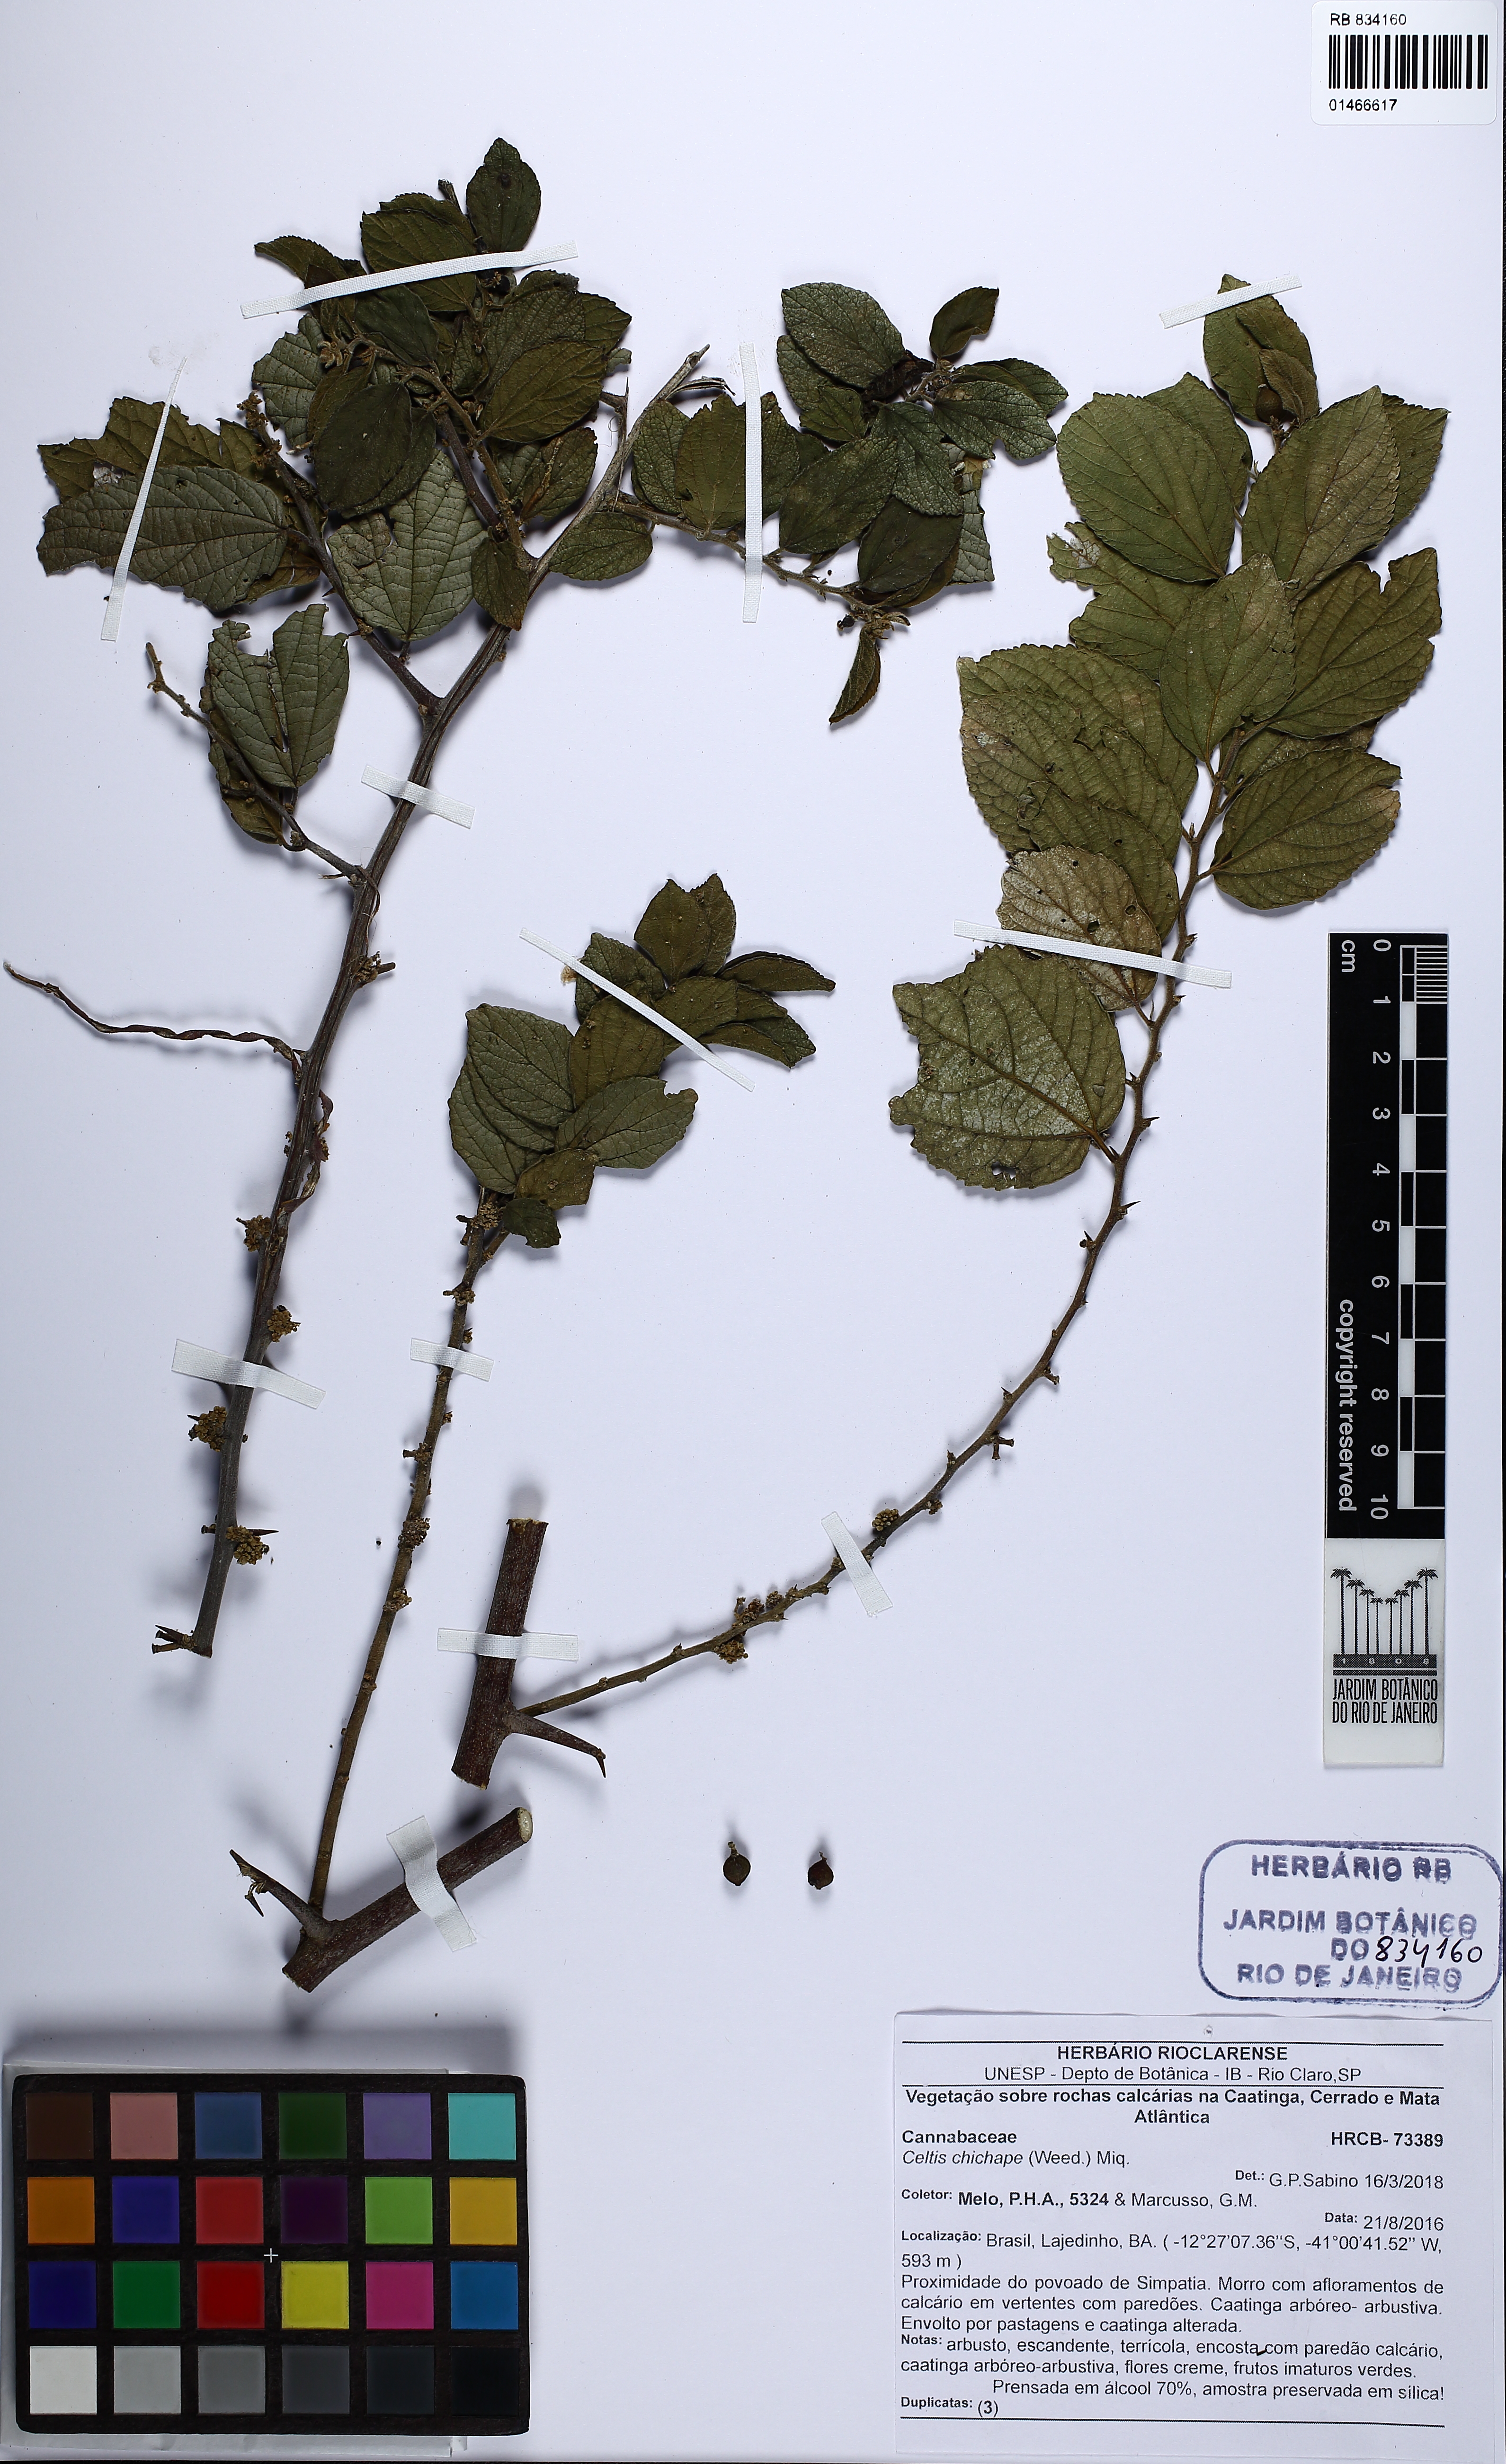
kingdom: Plantae
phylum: Tracheophyta
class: Magnoliopsida
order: Rosales
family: Cannabaceae
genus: Celtis
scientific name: Celtis chicape
